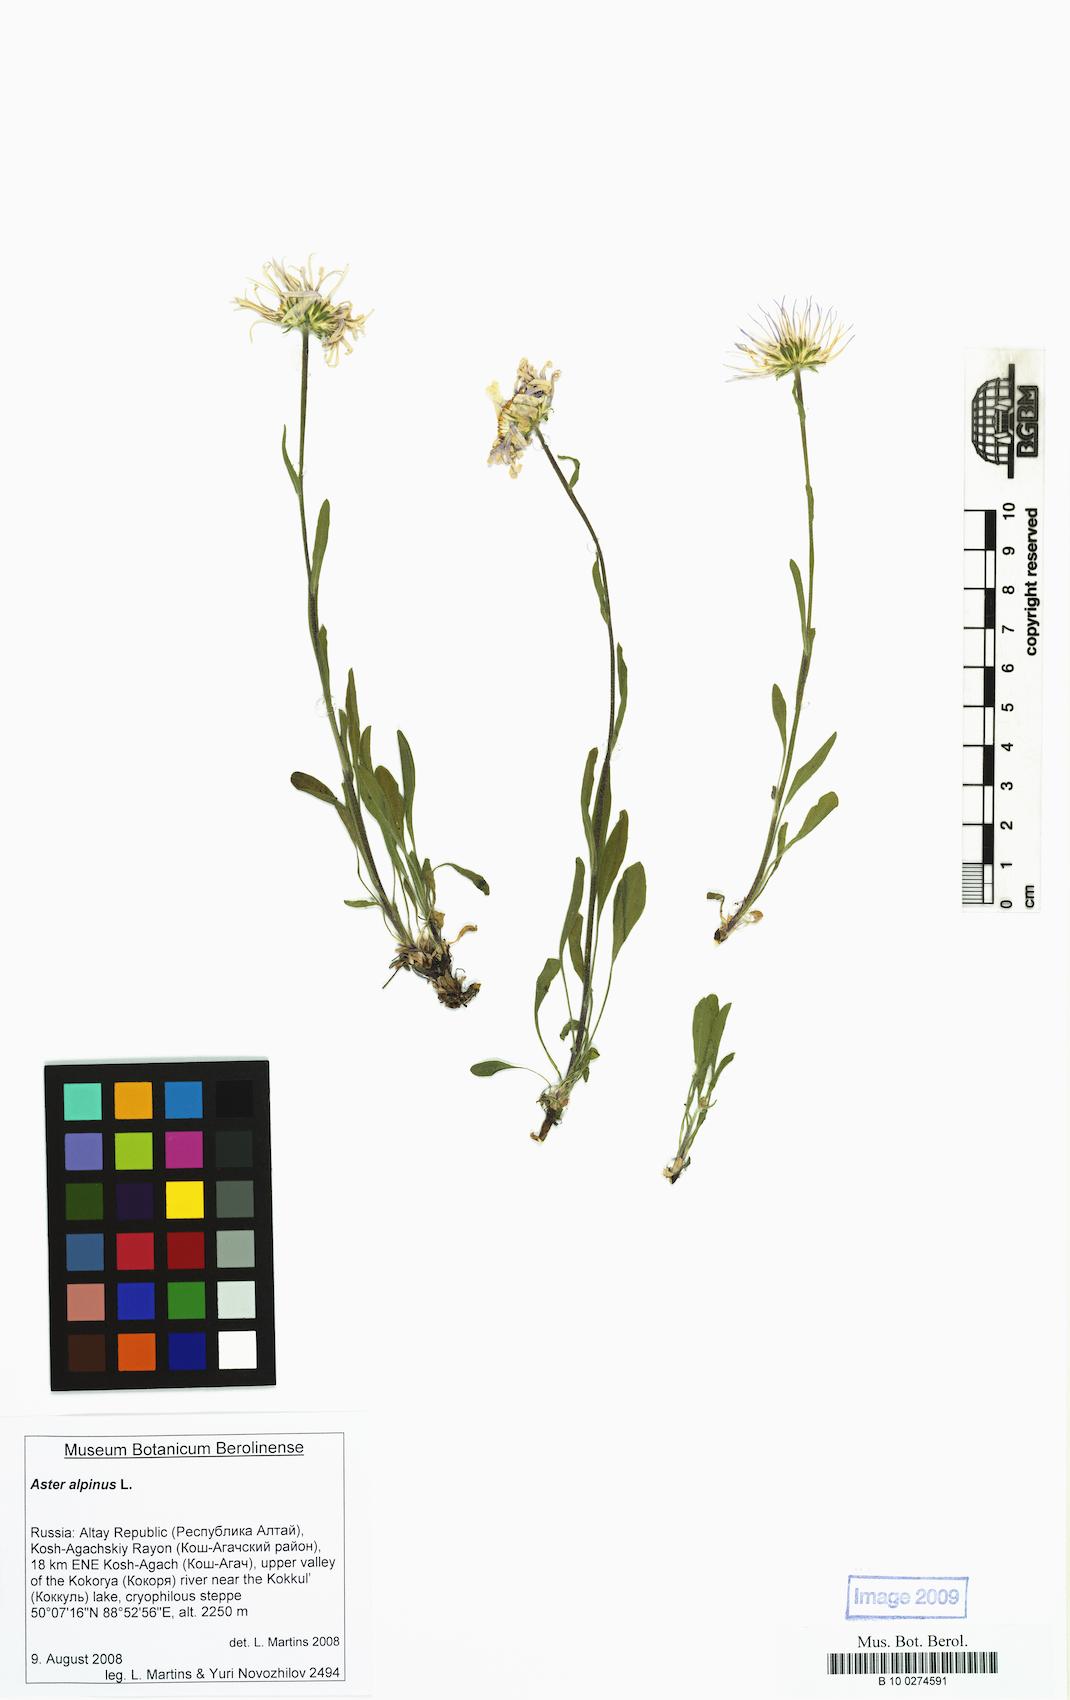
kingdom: Plantae
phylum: Tracheophyta
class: Magnoliopsida
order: Asterales
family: Asteraceae
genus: Aster
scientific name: Aster alpinus
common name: Alpine aster
